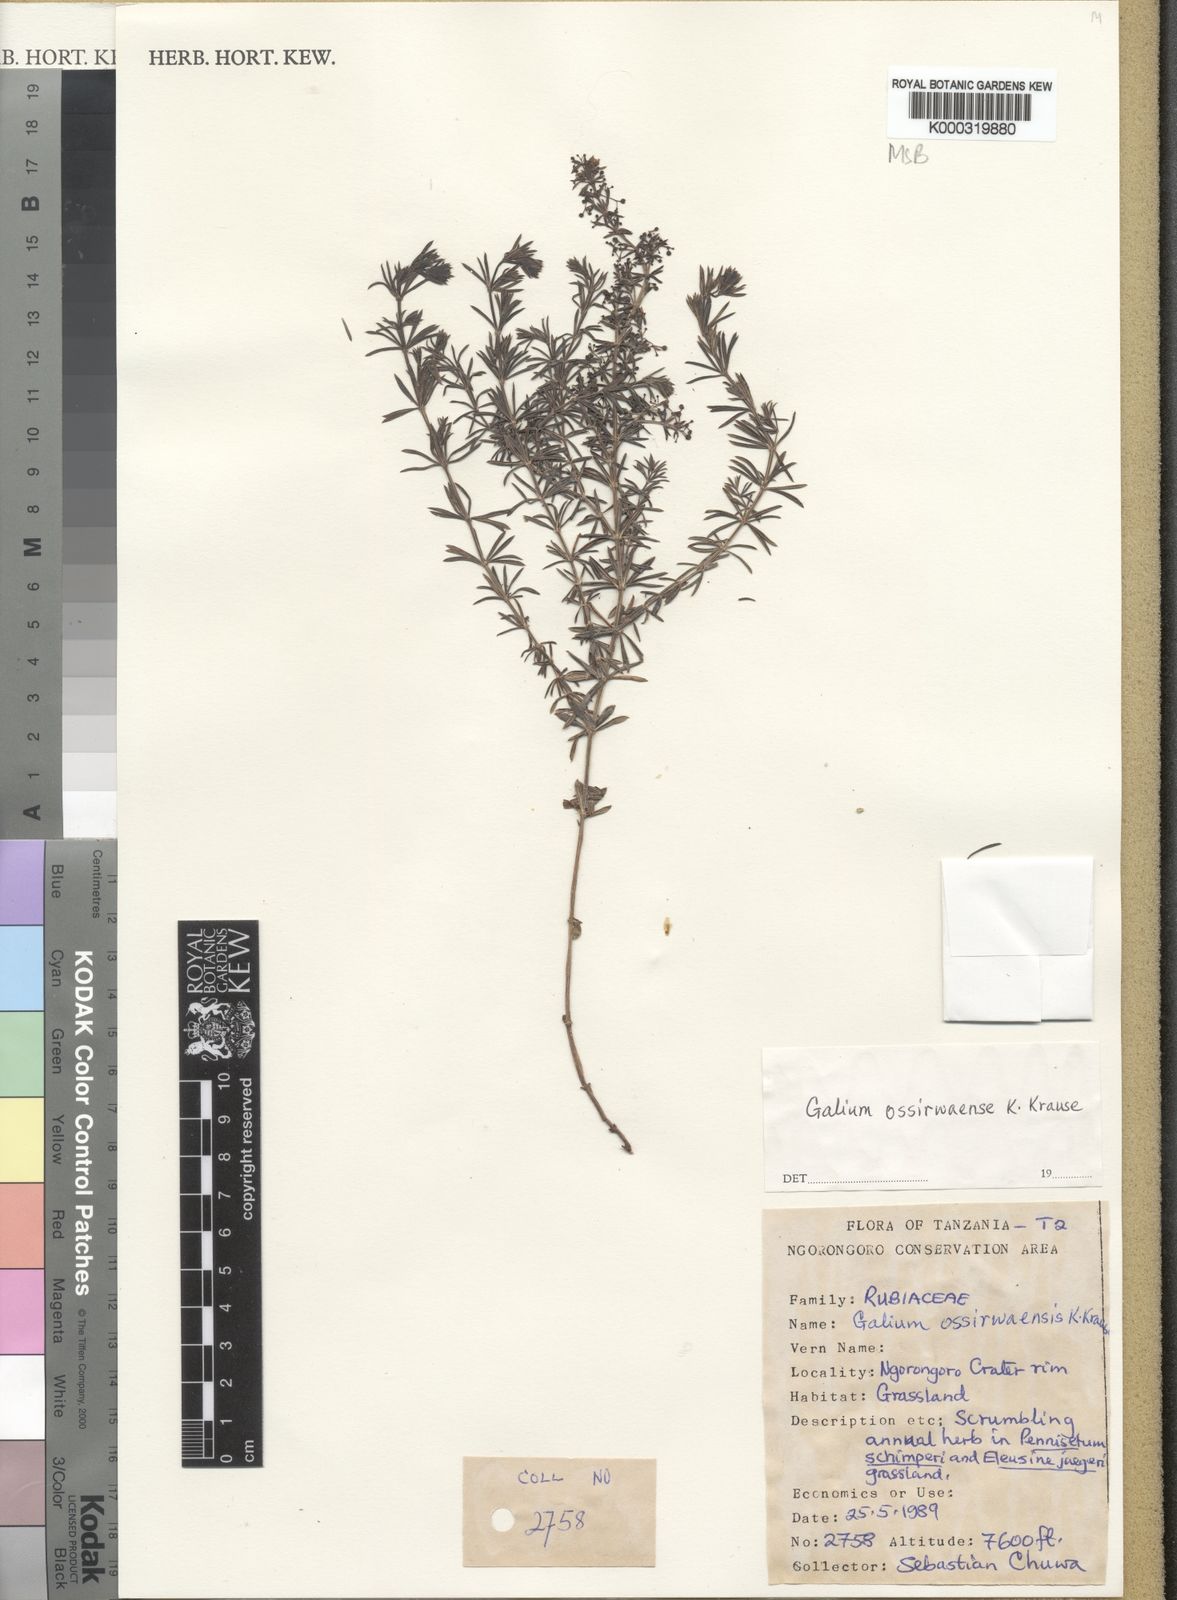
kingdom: Plantae
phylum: Tracheophyta
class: Magnoliopsida
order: Gentianales
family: Rubiaceae
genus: Galium
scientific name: Galium ossirwaense
